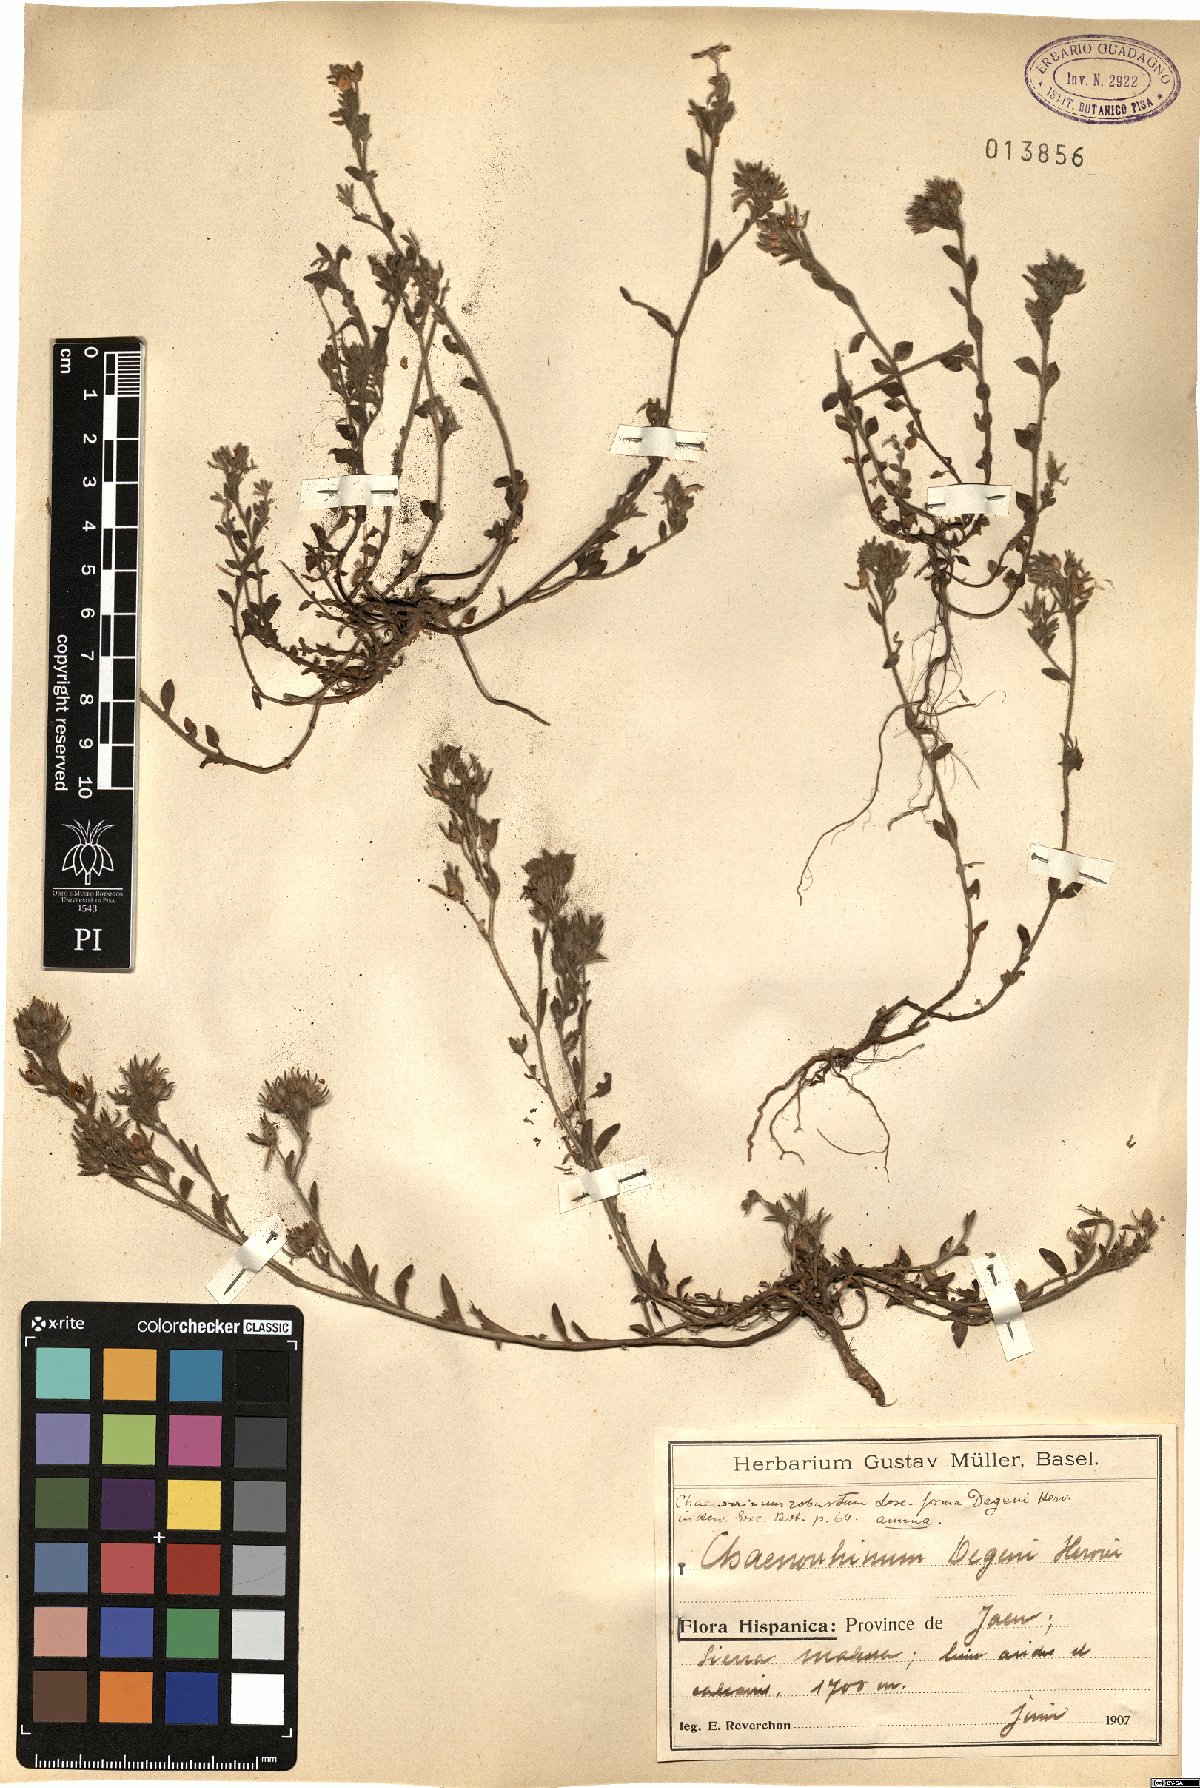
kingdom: Plantae
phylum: Tracheophyta
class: Magnoliopsida
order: Lamiales
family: Plantaginaceae
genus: Chaenorhinum
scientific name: Chaenorhinum macropodum
